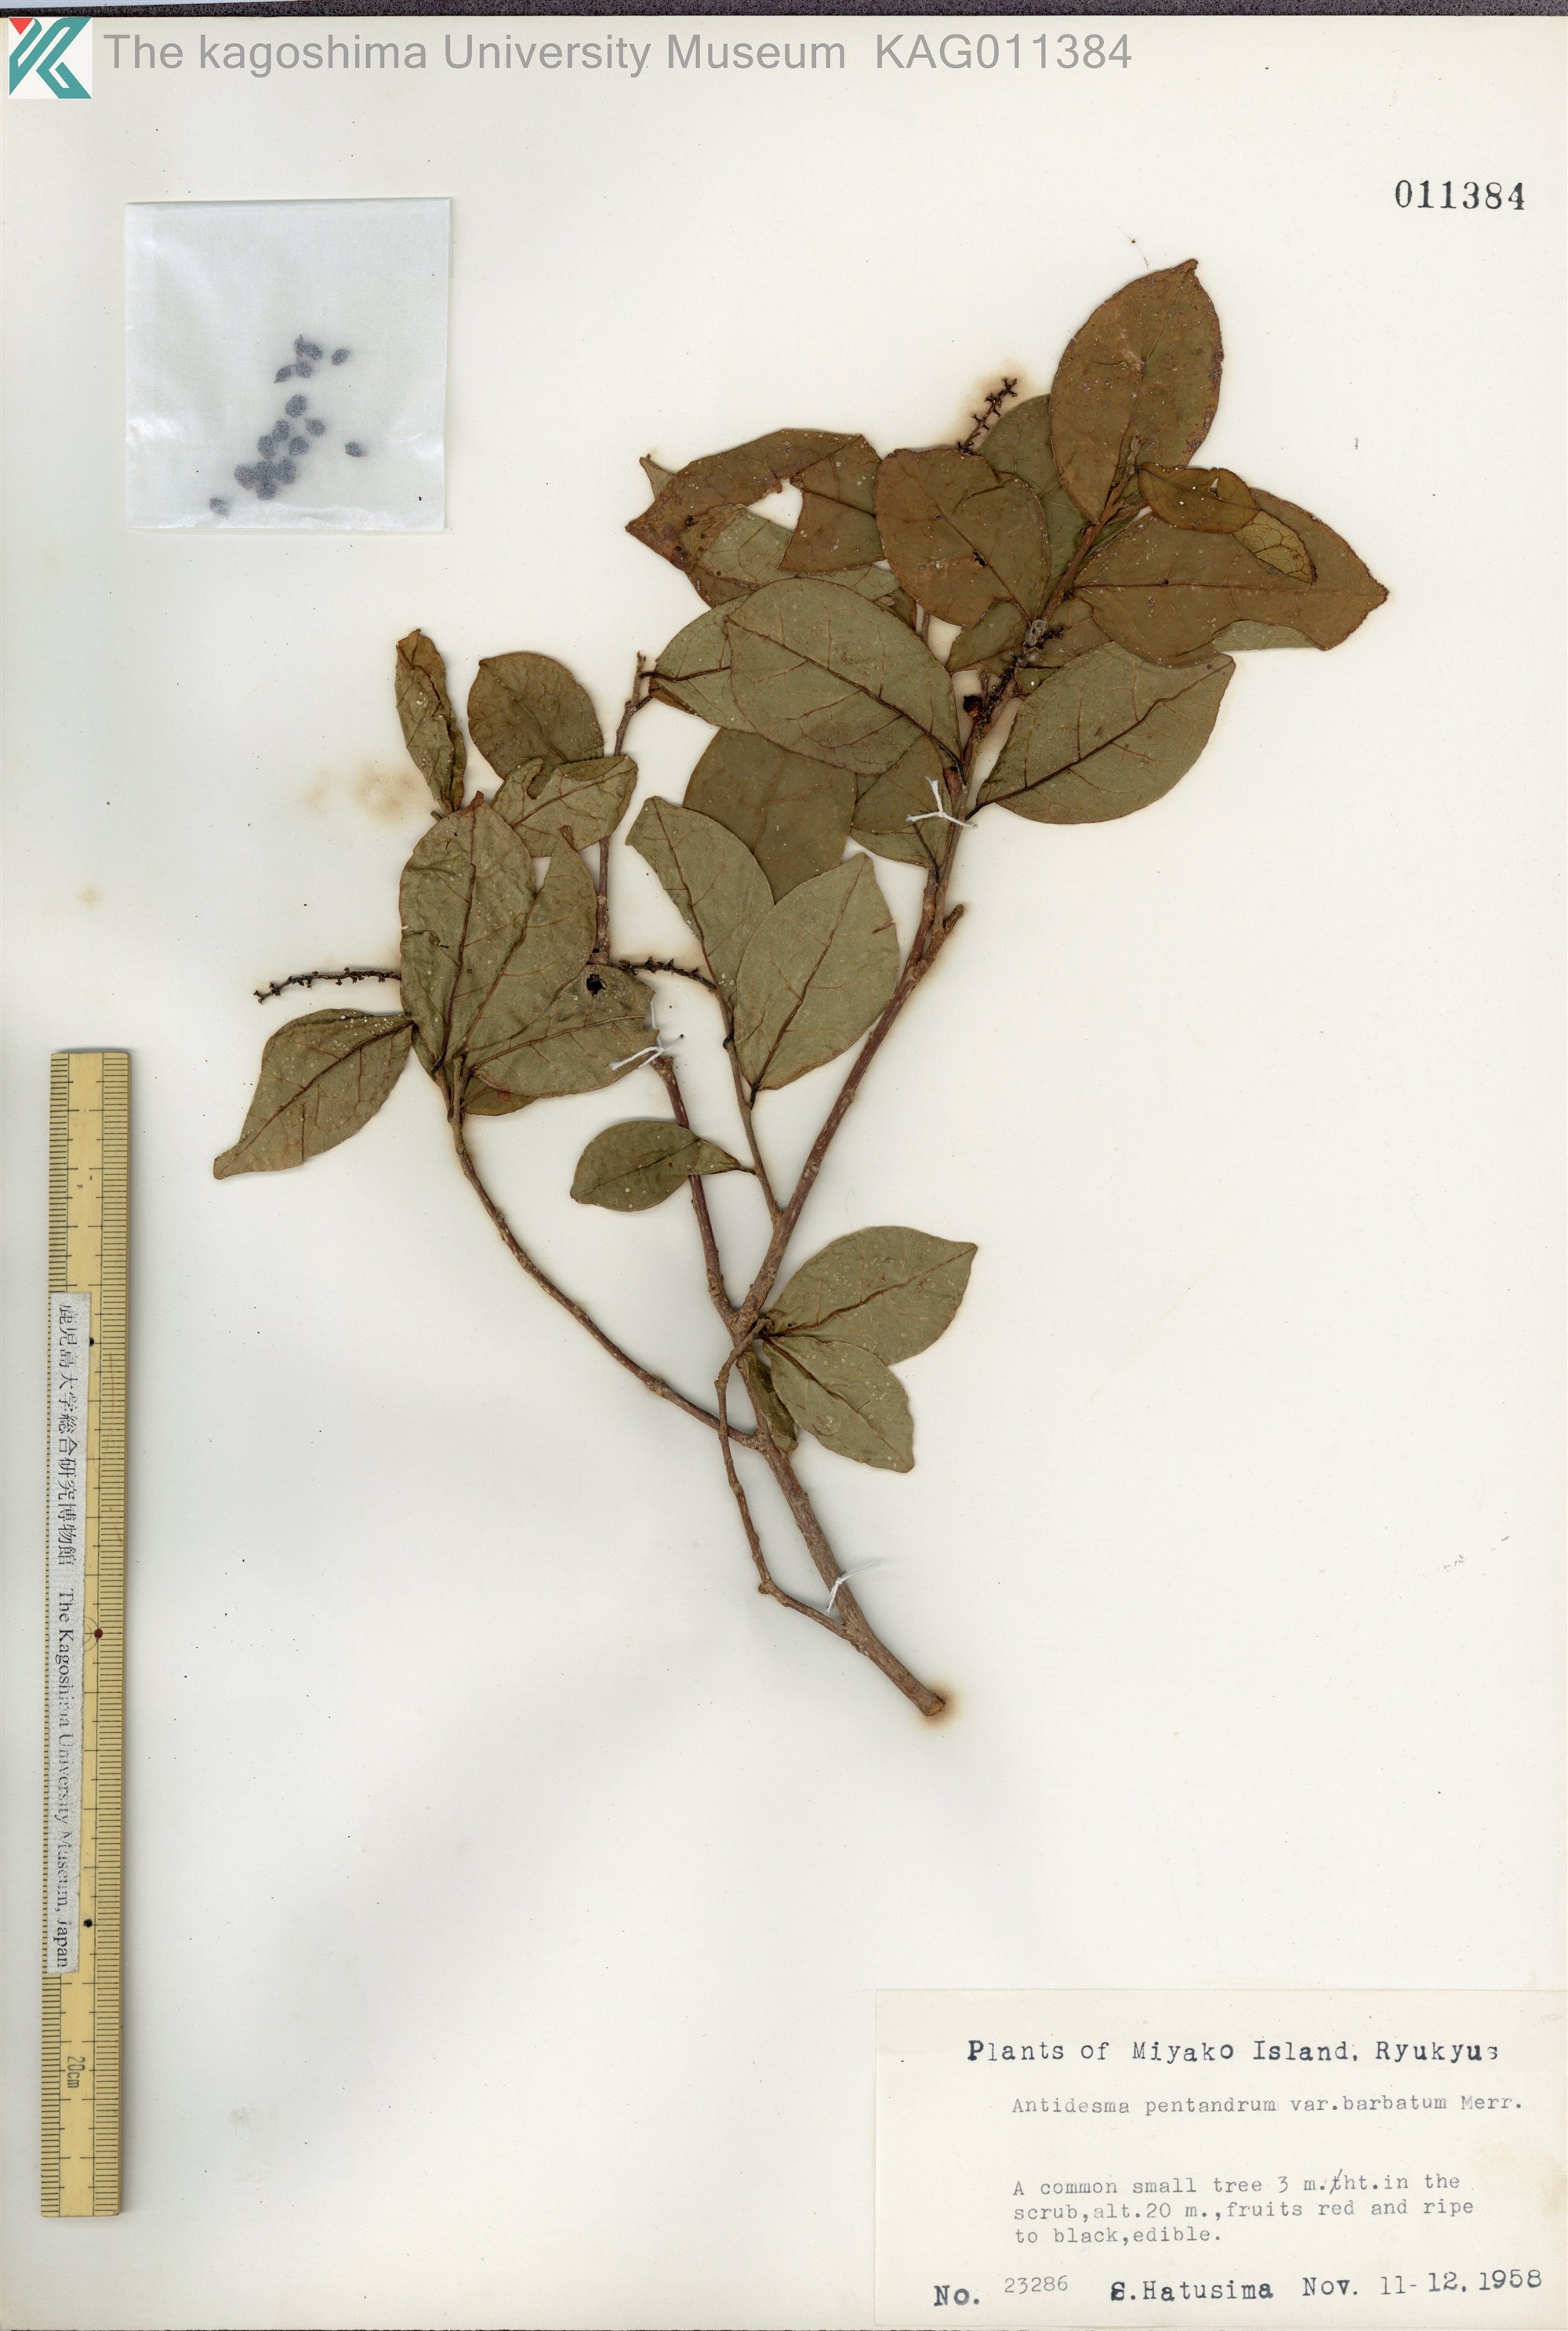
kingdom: Plantae
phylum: Tracheophyta
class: Magnoliopsida
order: Malpighiales
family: Phyllanthaceae
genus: Antidesma
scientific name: Antidesma montanum
